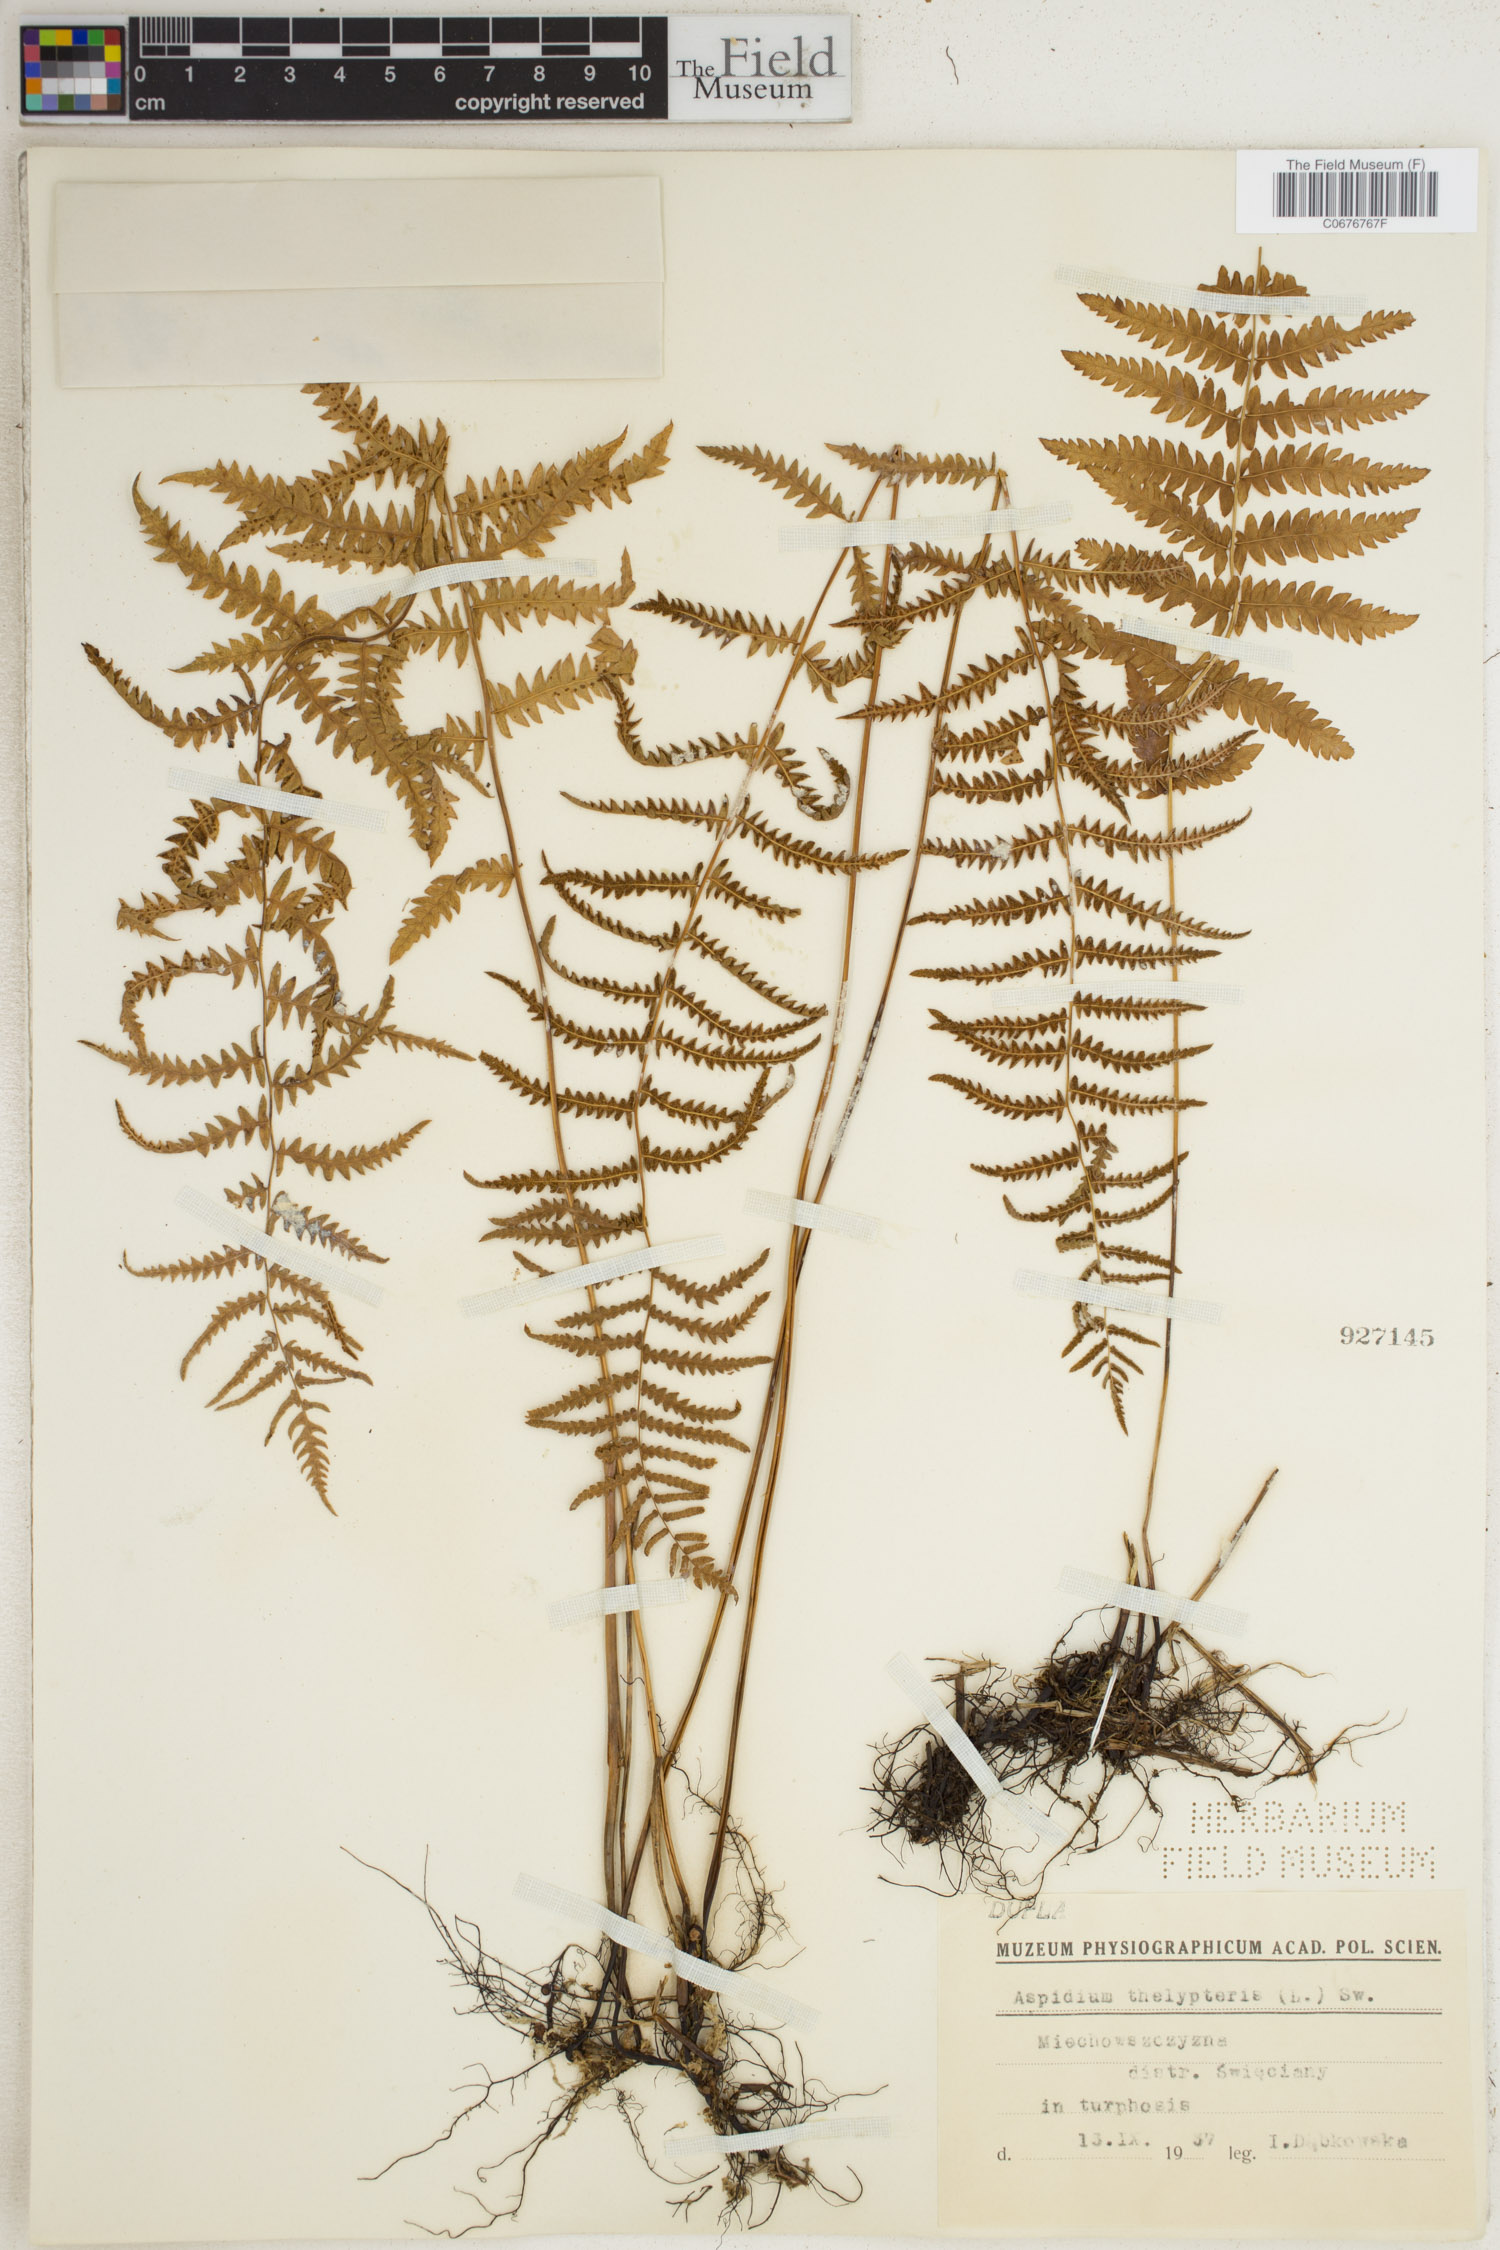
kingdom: Plantae
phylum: Tracheophyta
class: Polypodiopsida
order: Polypodiales
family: Thelypteridaceae
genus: Thelypteris
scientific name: Thelypteris palustris
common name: Marsh fern
